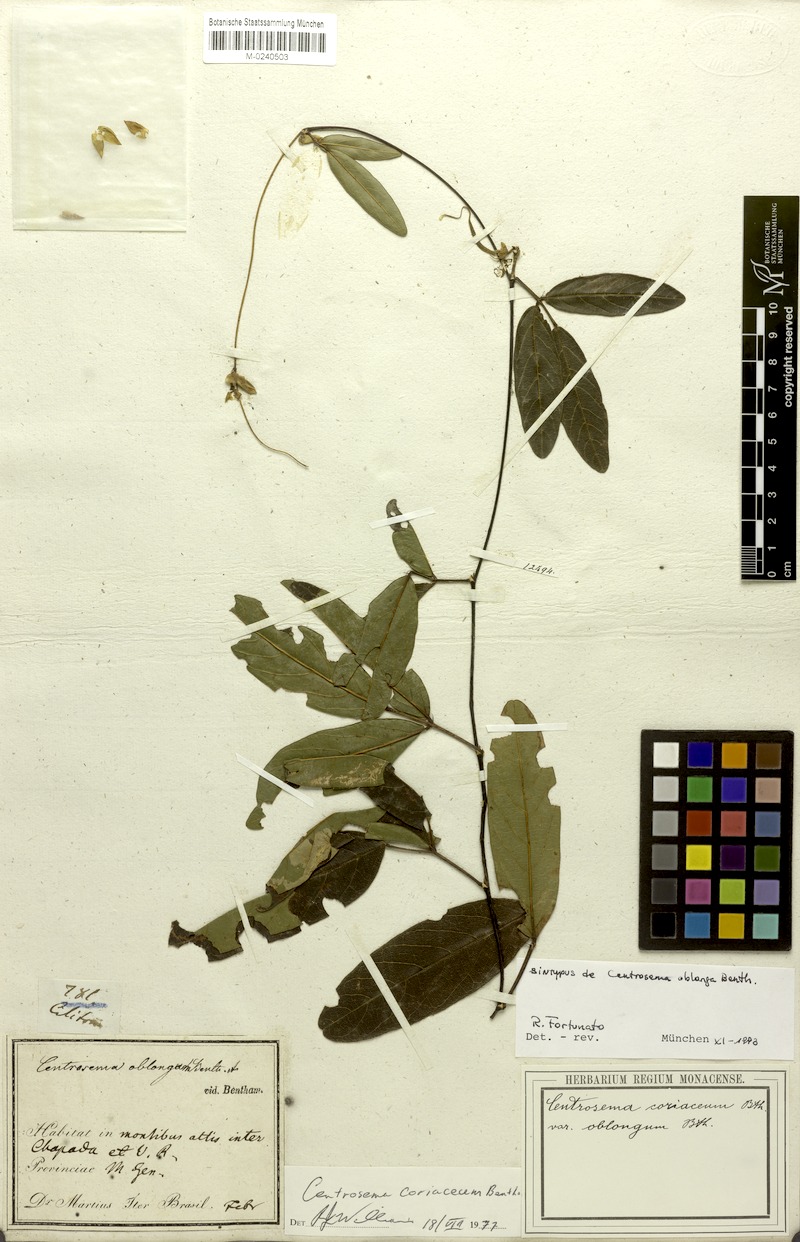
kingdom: Plantae
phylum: Tracheophyta
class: Magnoliopsida
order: Fabales
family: Fabaceae
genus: Centrosema
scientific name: Centrosema coriaceum
